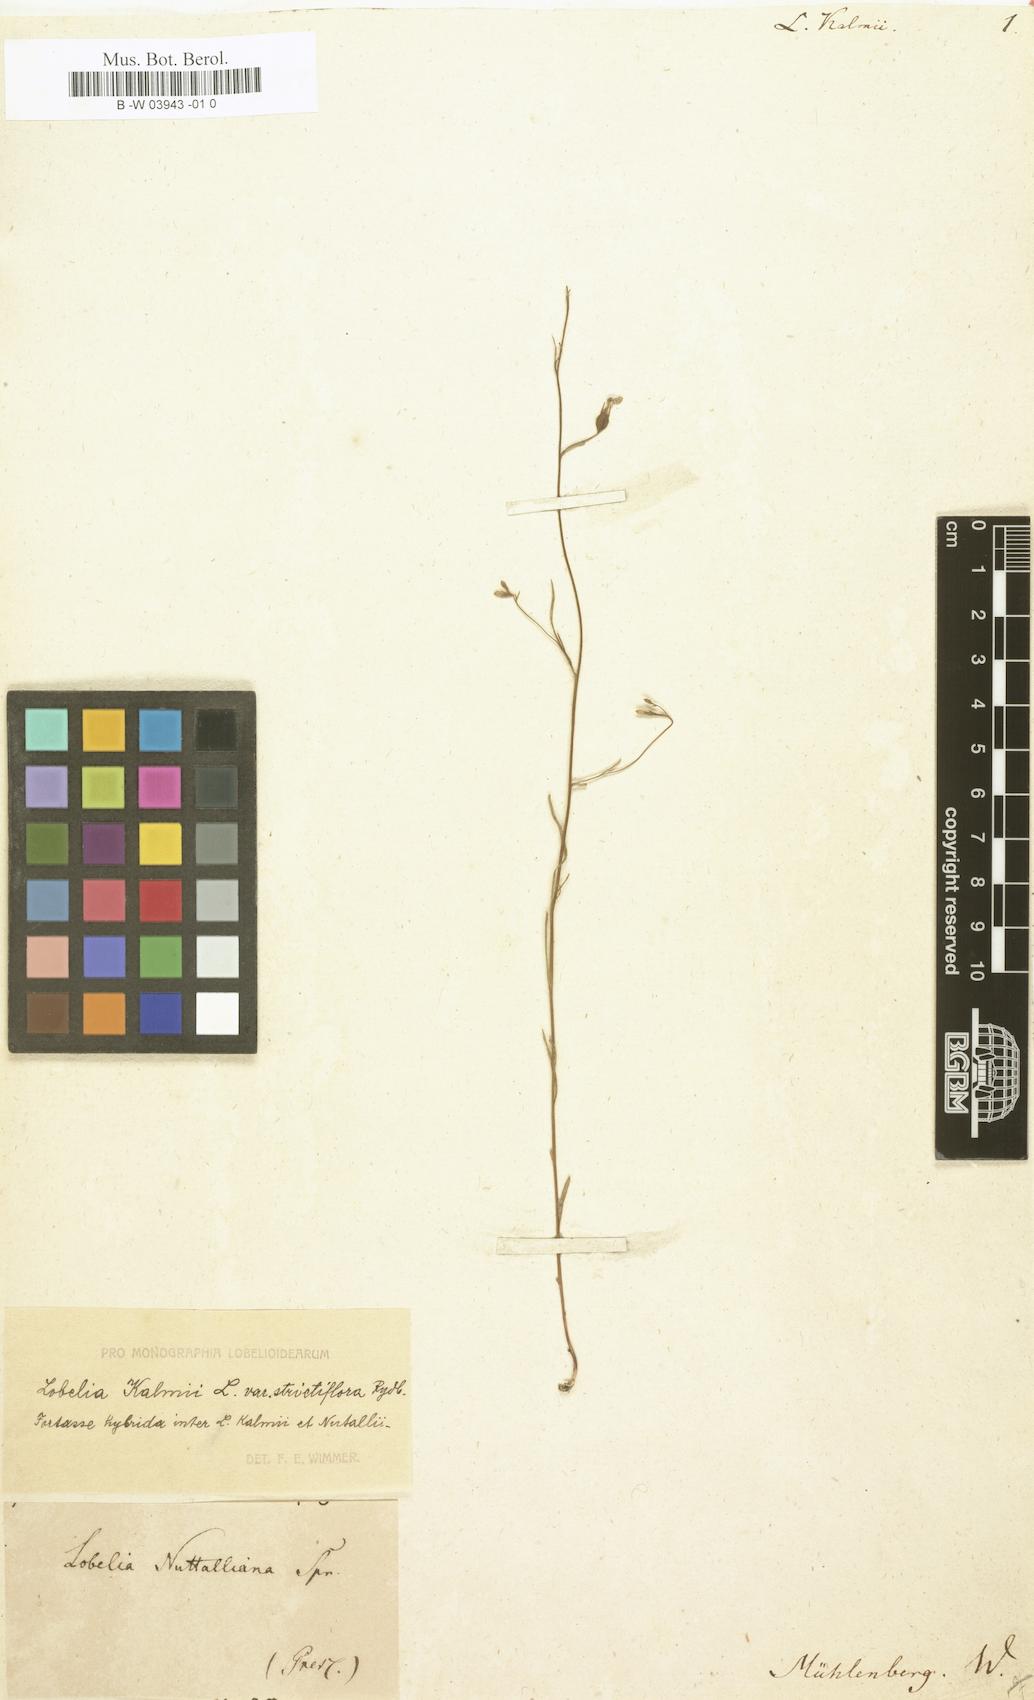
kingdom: Plantae
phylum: Tracheophyta
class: Magnoliopsida
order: Asterales
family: Campanulaceae
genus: Lobelia
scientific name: Lobelia kalmii
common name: Kalm's lobelia
